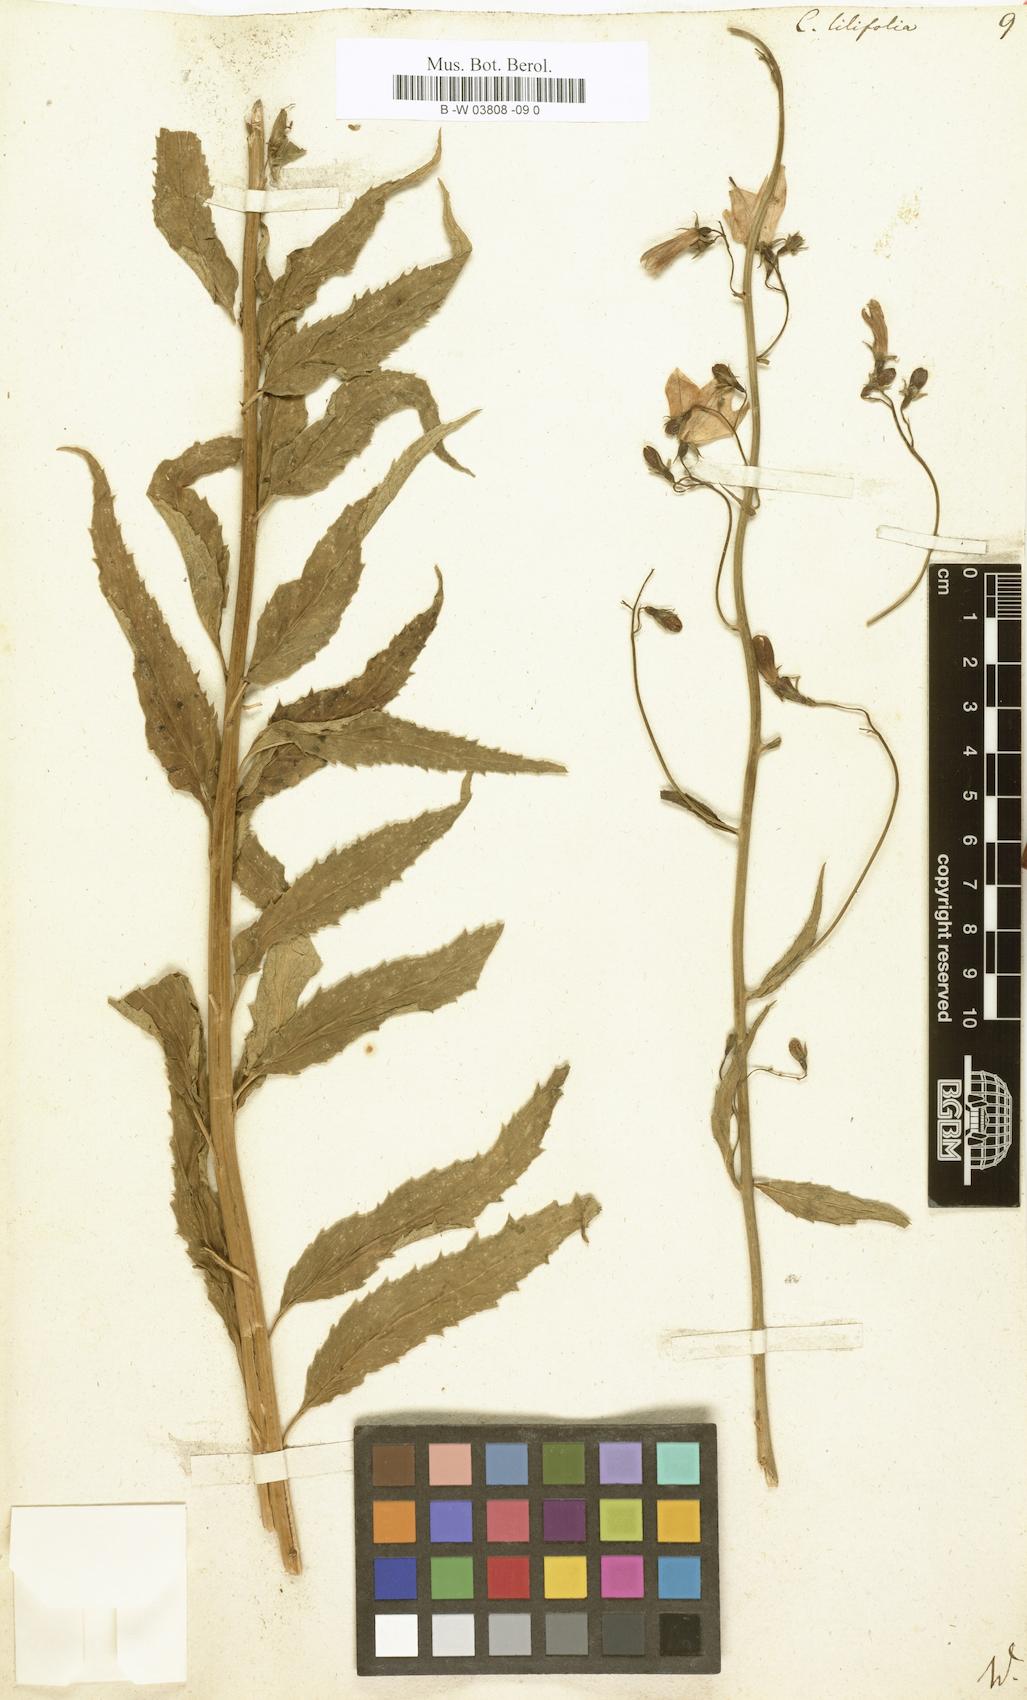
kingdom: Plantae
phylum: Tracheophyta
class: Magnoliopsida
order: Asterales
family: Campanulaceae
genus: Campanula
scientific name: Campanula lilifolia
